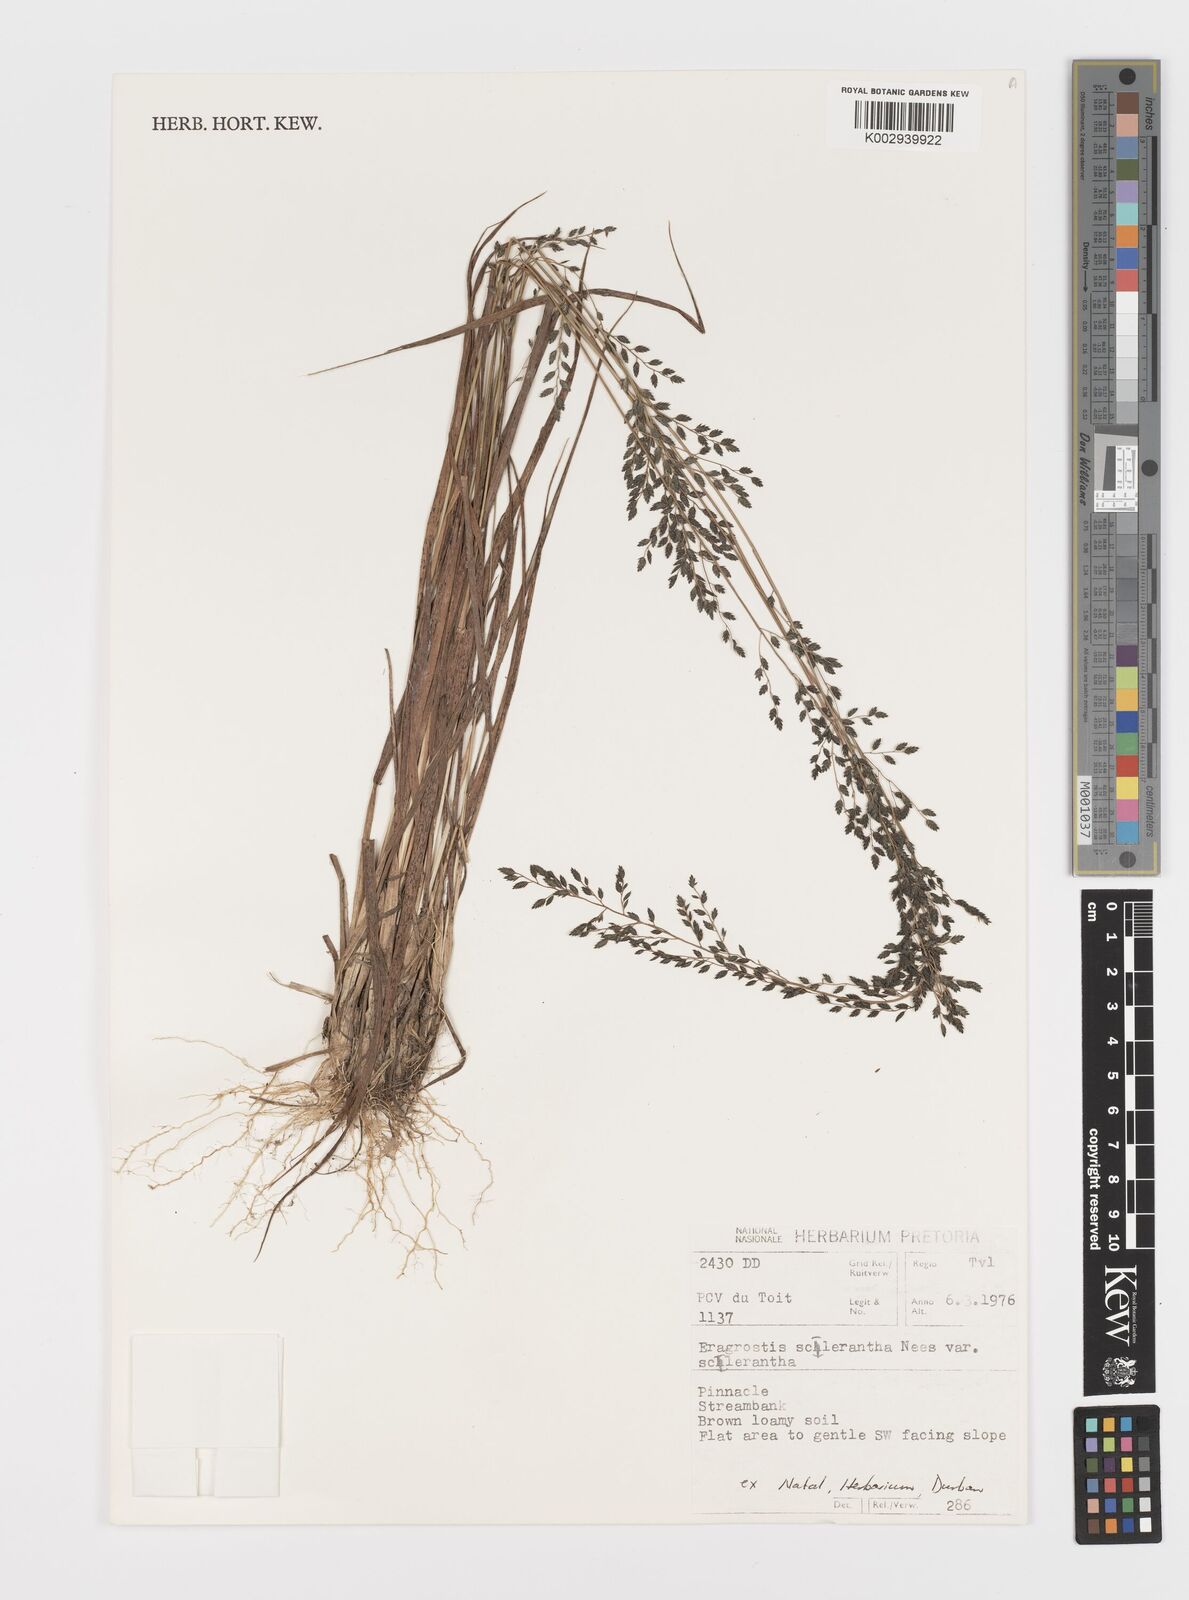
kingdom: Plantae
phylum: Tracheophyta
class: Liliopsida
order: Poales
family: Poaceae
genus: Eragrostis
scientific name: Eragrostis sclerantha
